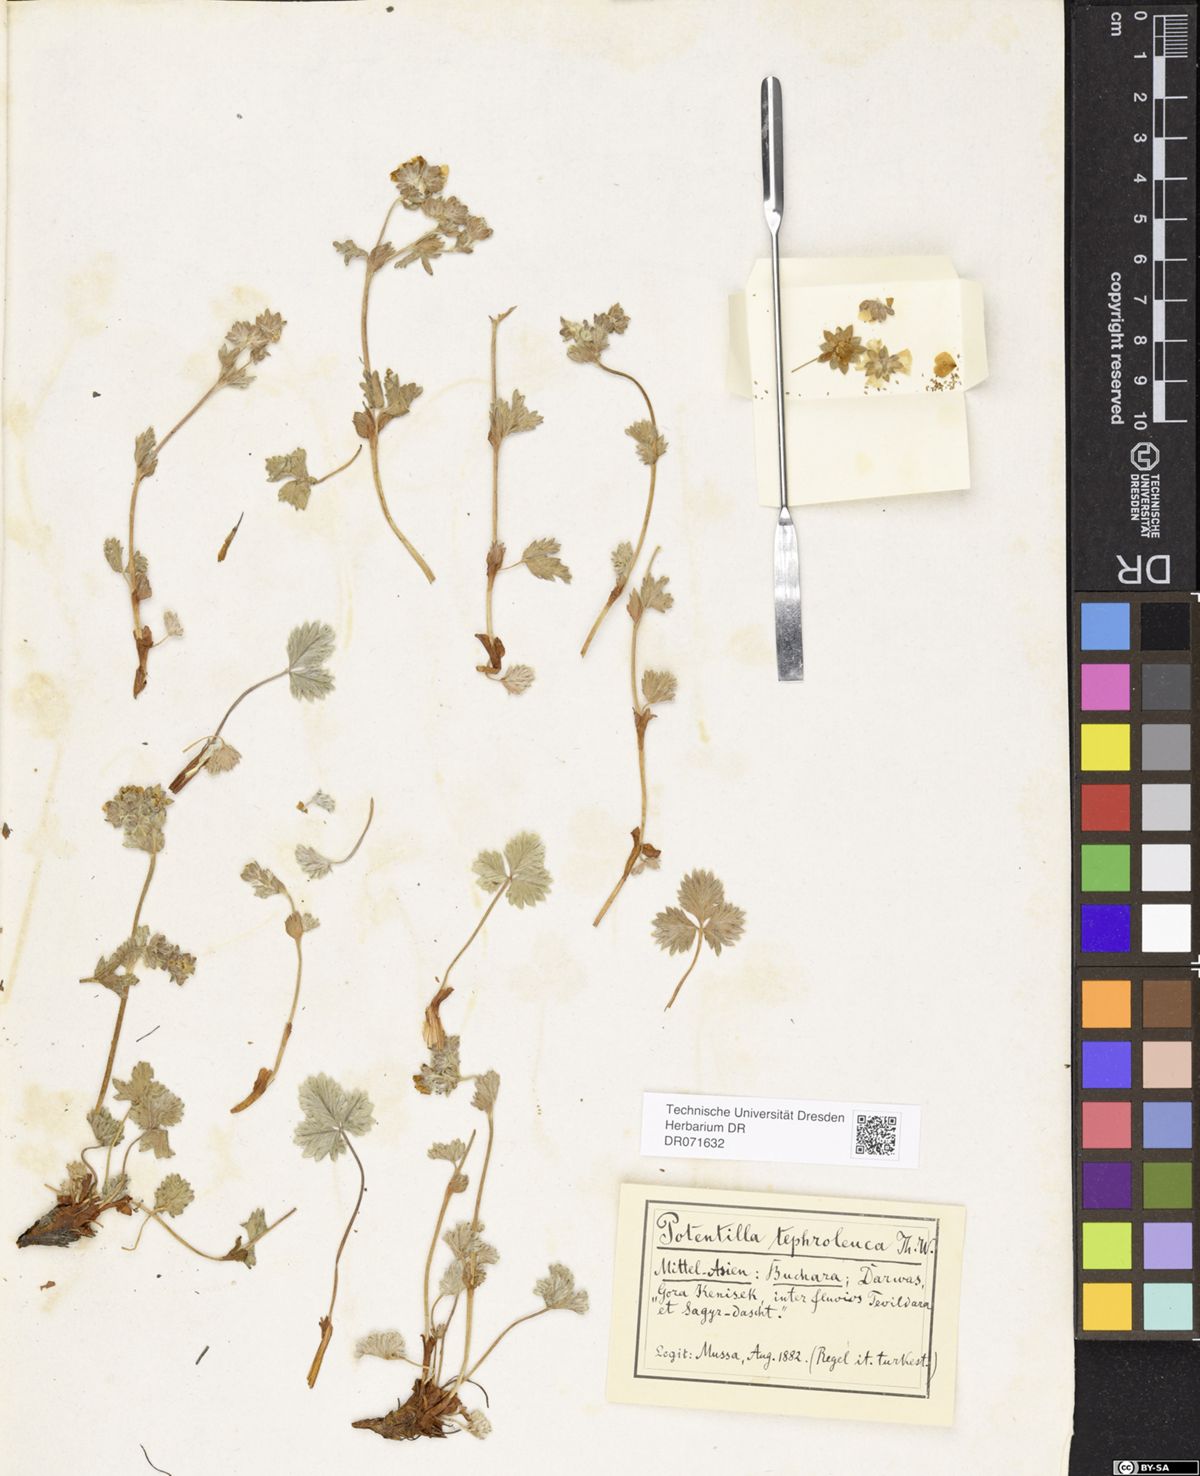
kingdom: Plantae
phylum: Tracheophyta
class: Magnoliopsida
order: Rosales
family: Rosaceae
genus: Potentilla
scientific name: Potentilla tephroleuca
